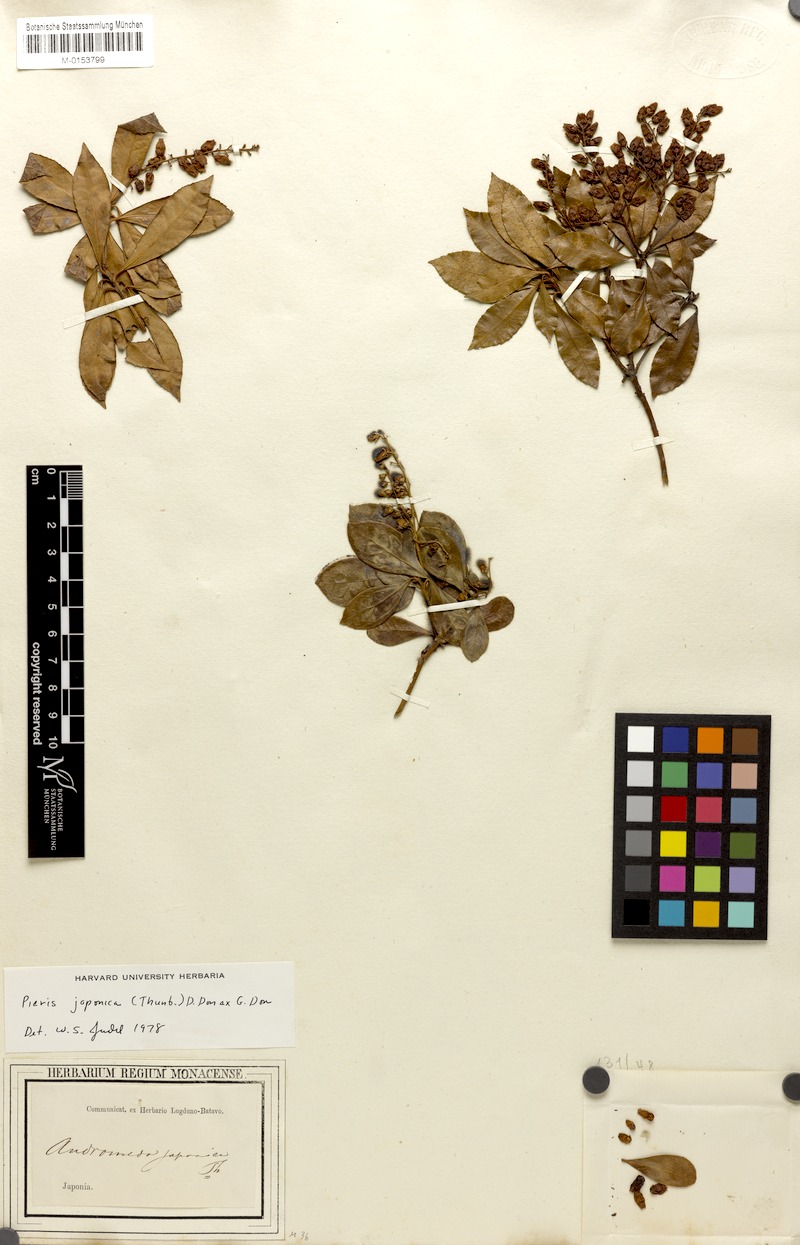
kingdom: Plantae
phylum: Tracheophyta
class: Magnoliopsida
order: Ericales
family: Ericaceae
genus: Pieris
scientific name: Pieris japonica
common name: Japanese pieris
